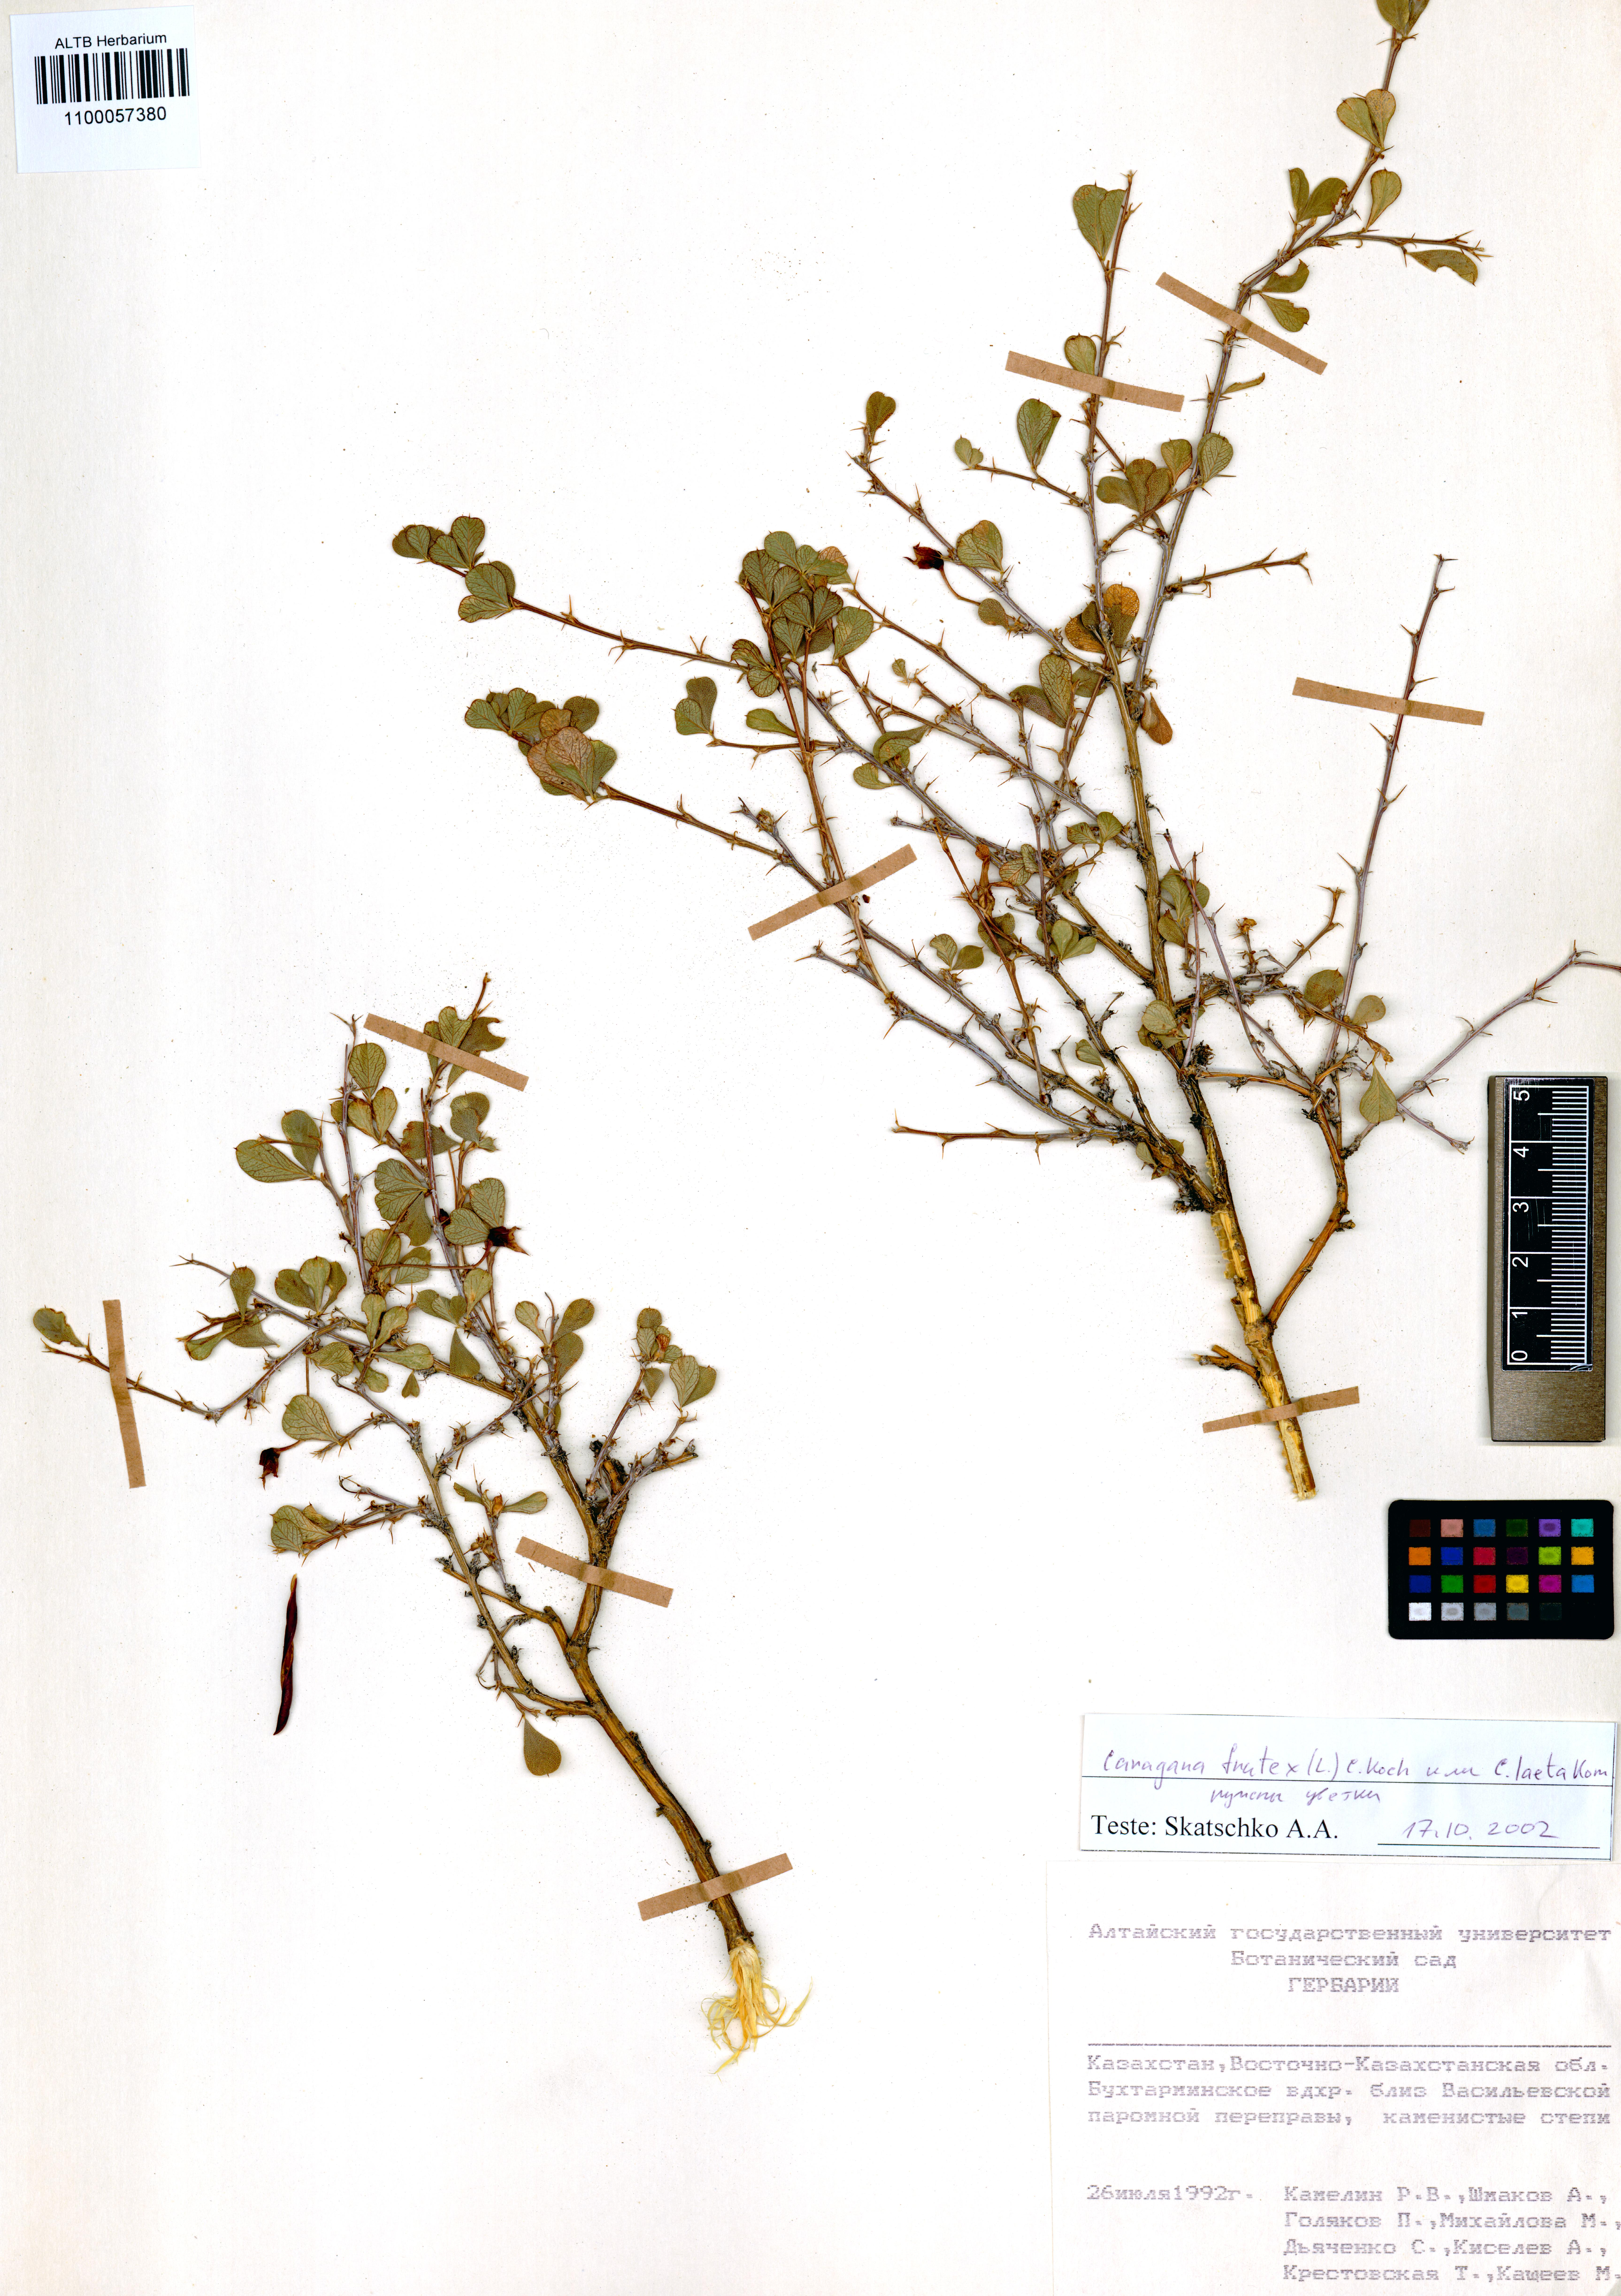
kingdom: Plantae
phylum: Tracheophyta
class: Magnoliopsida
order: Fabales
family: Fabaceae
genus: Caragana
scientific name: Caragana frutex
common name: Russian peashrub
